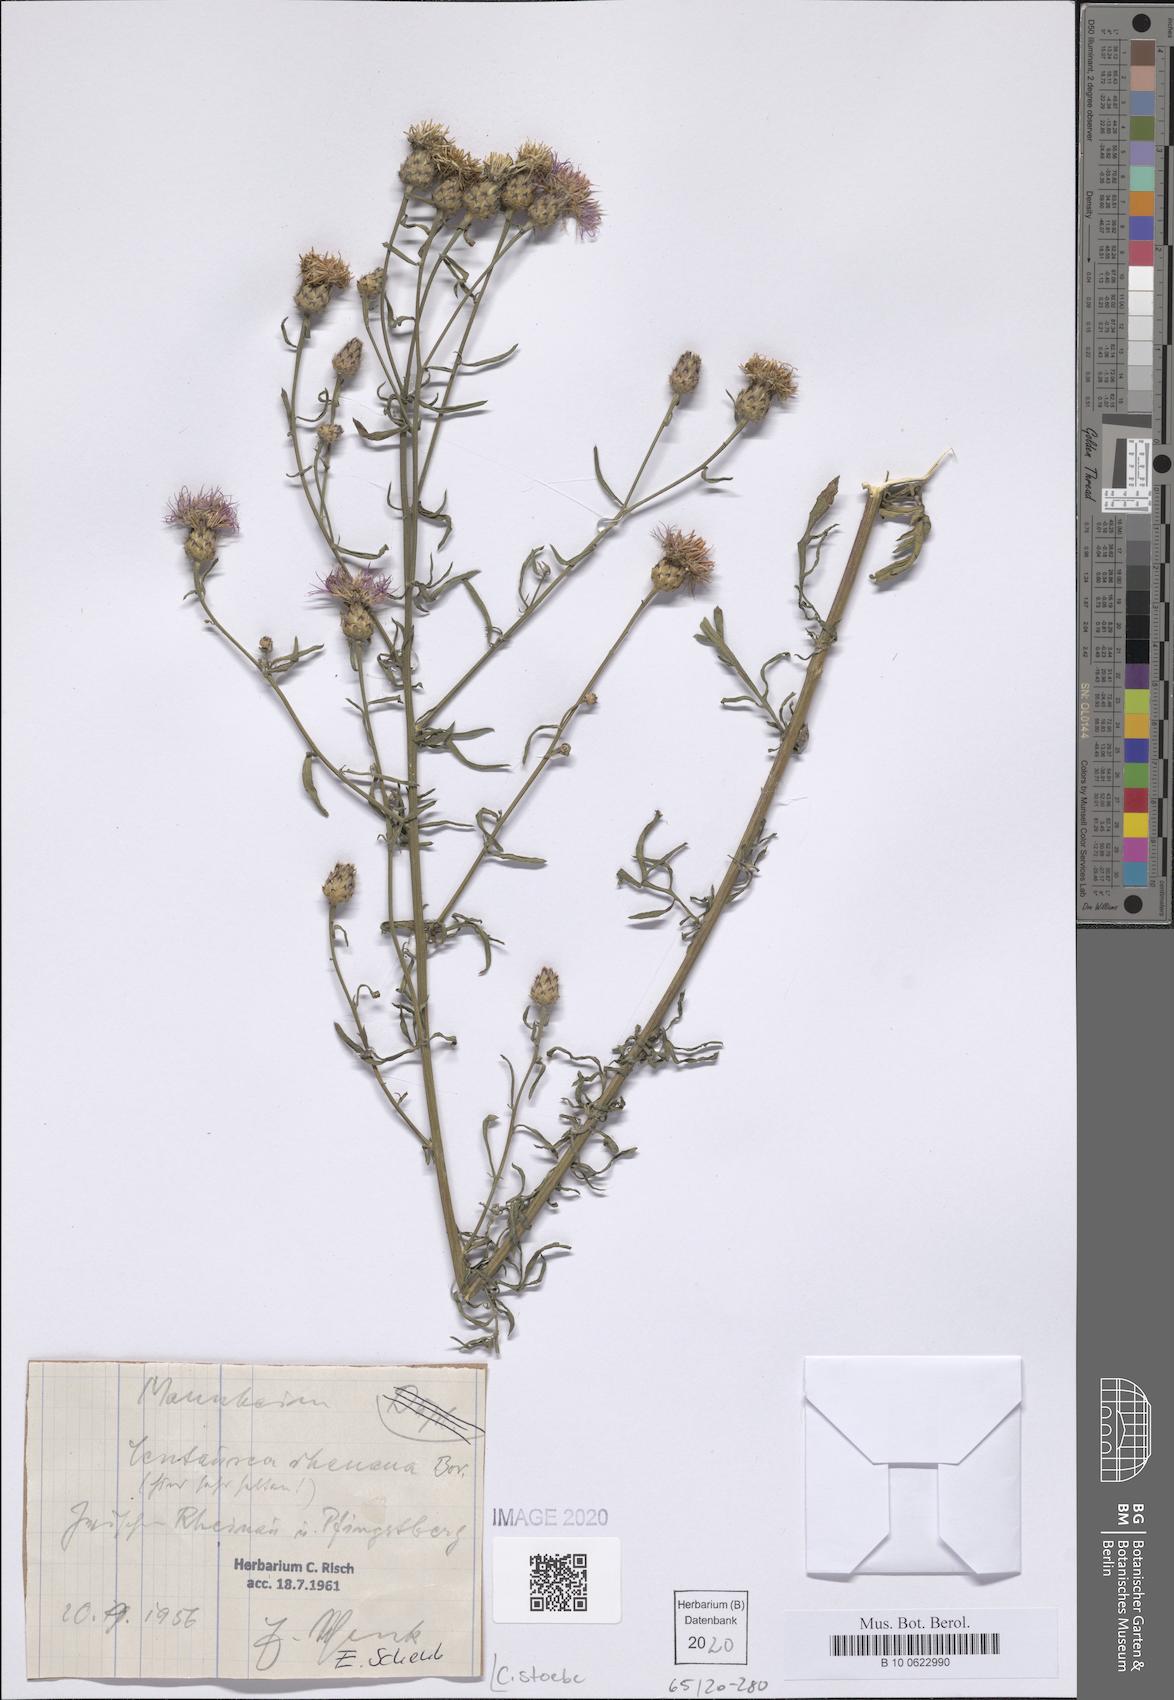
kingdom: Plantae
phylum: Tracheophyta
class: Magnoliopsida
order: Asterales
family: Asteraceae
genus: Centaurea
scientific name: Centaurea stoebe
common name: Spotted knapweed
